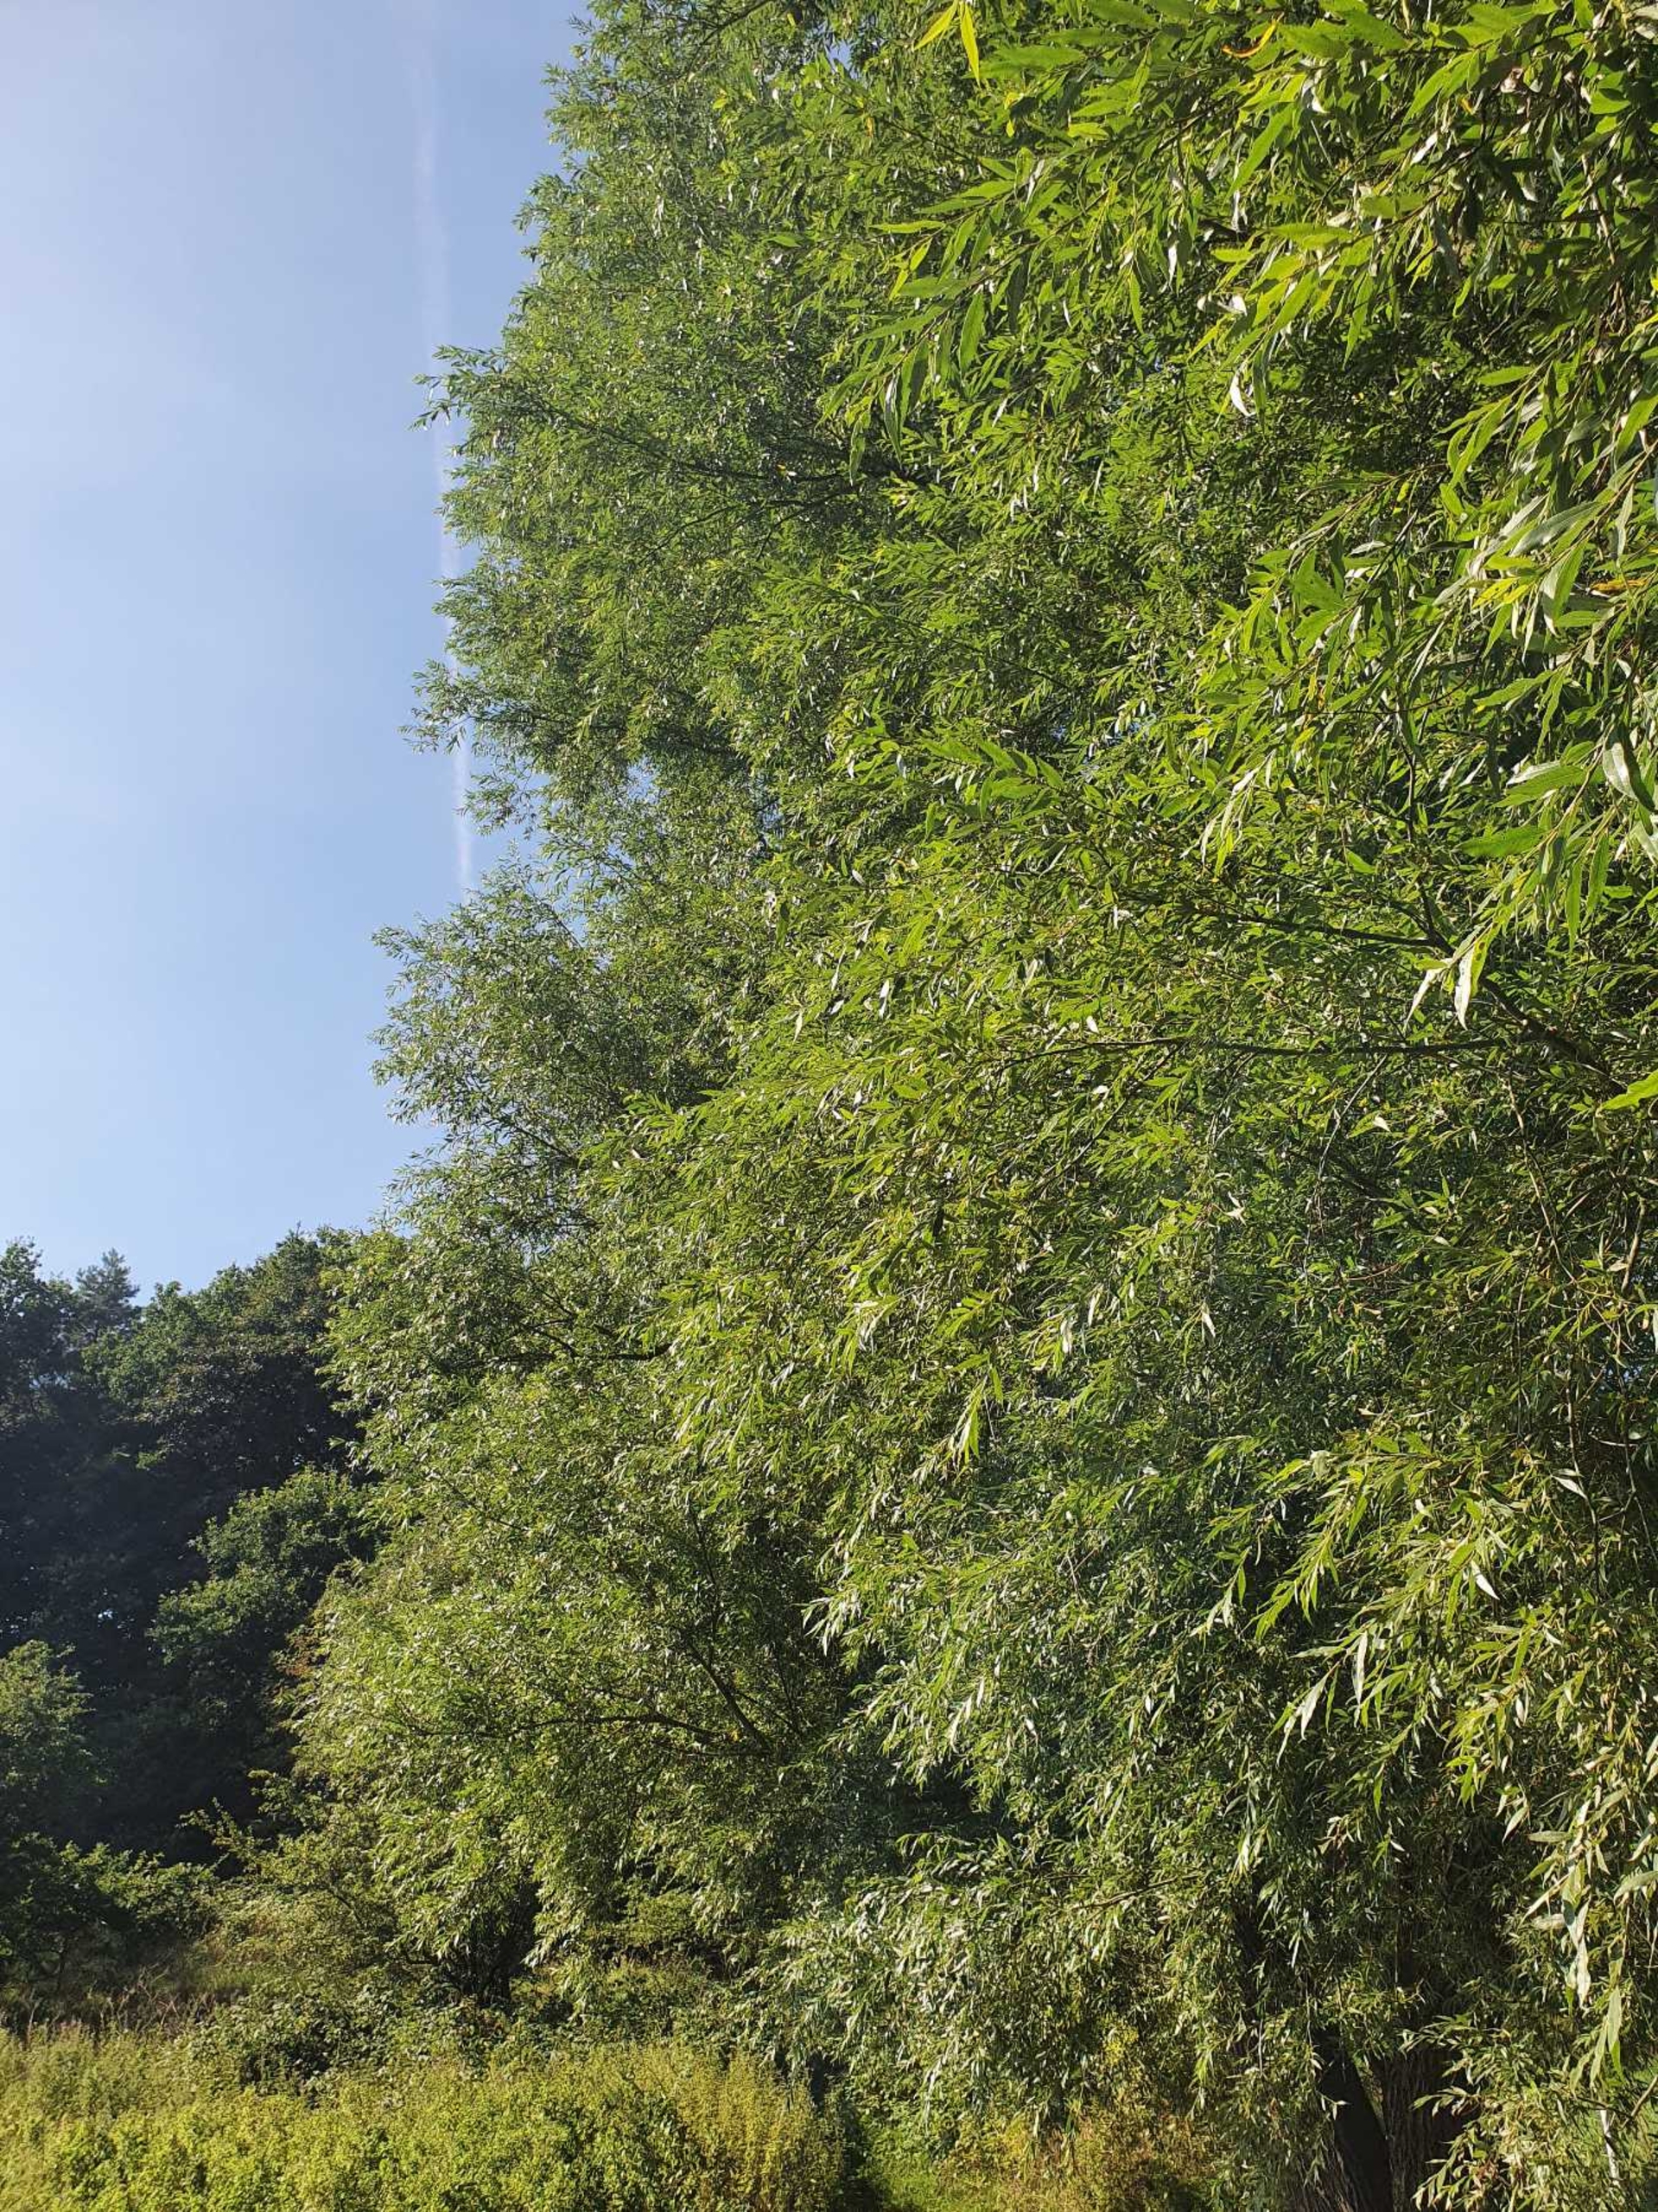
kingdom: Plantae
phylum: Tracheophyta
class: Magnoliopsida
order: Malpighiales
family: Salicaceae
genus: Salix
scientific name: Salix alba
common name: Hvid-pil
